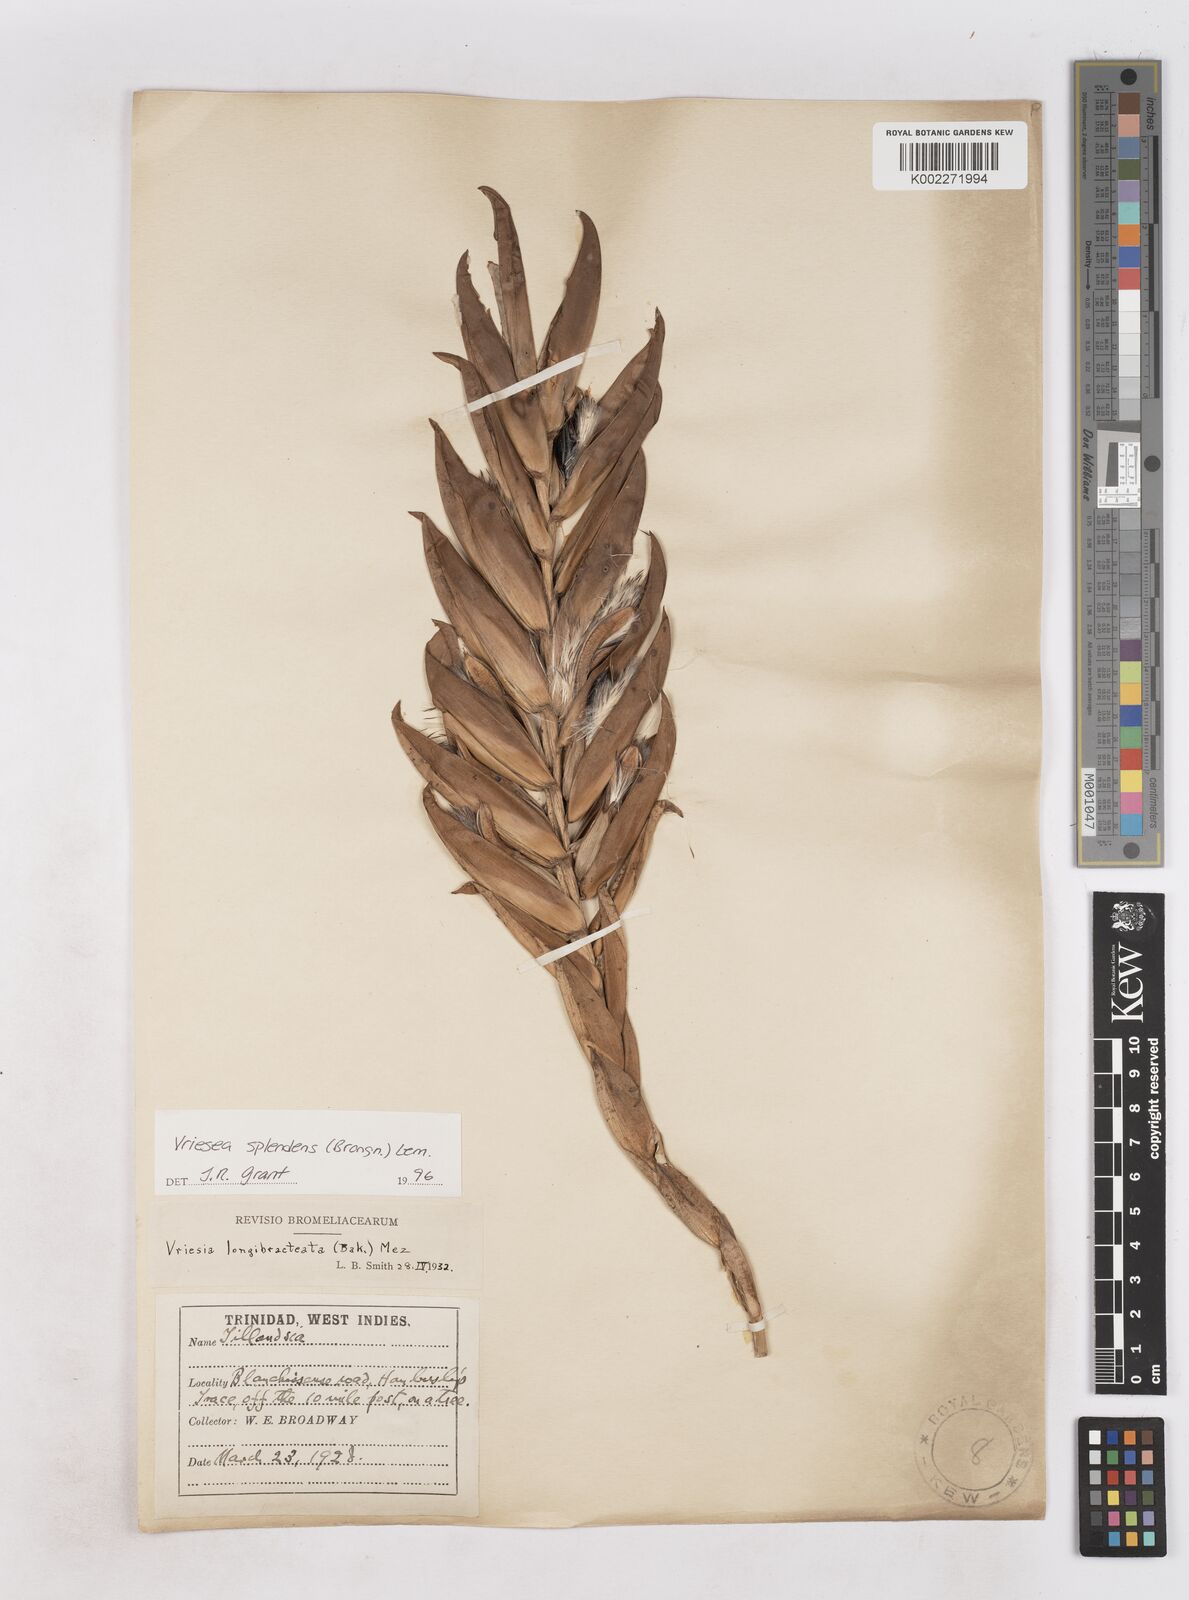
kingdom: Plantae
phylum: Tracheophyta
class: Liliopsida
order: Poales
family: Bromeliaceae
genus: Lutheria
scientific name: Lutheria splendens
